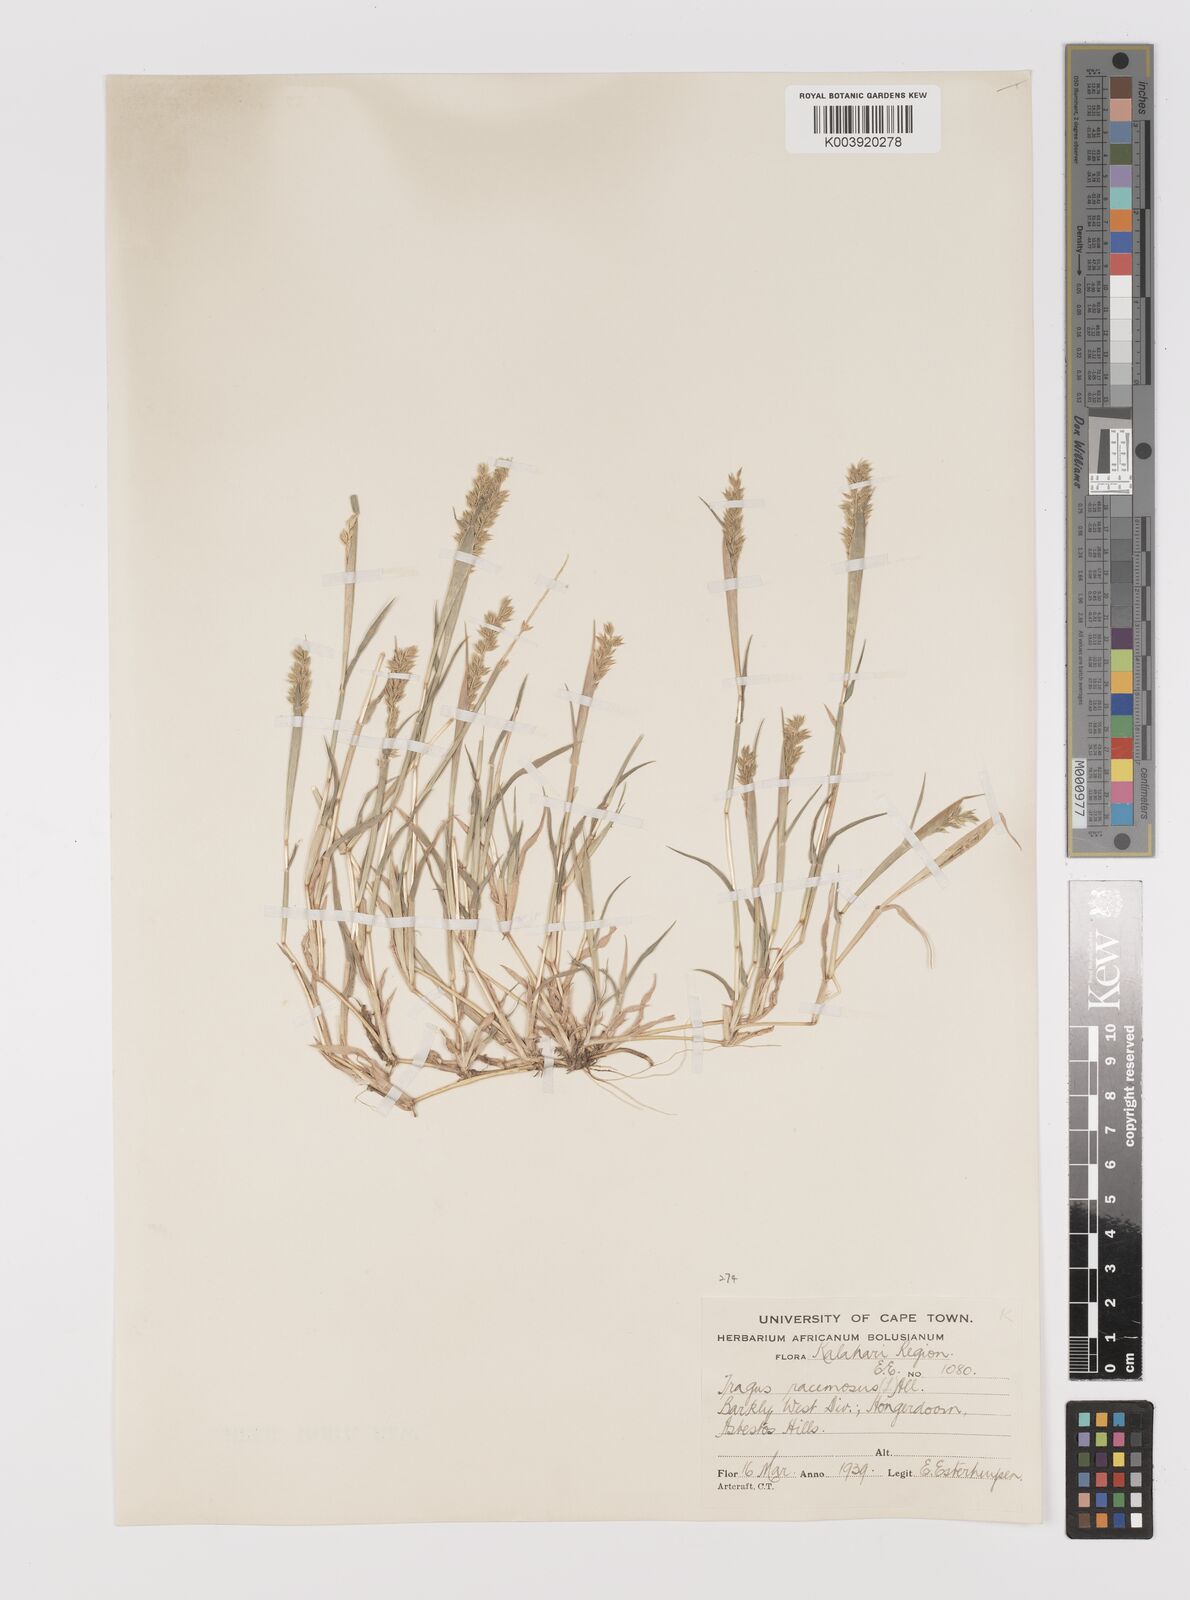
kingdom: Plantae
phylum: Tracheophyta
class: Liliopsida
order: Poales
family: Poaceae
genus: Tragus
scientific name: Tragus racemosus
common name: European bur-grass
